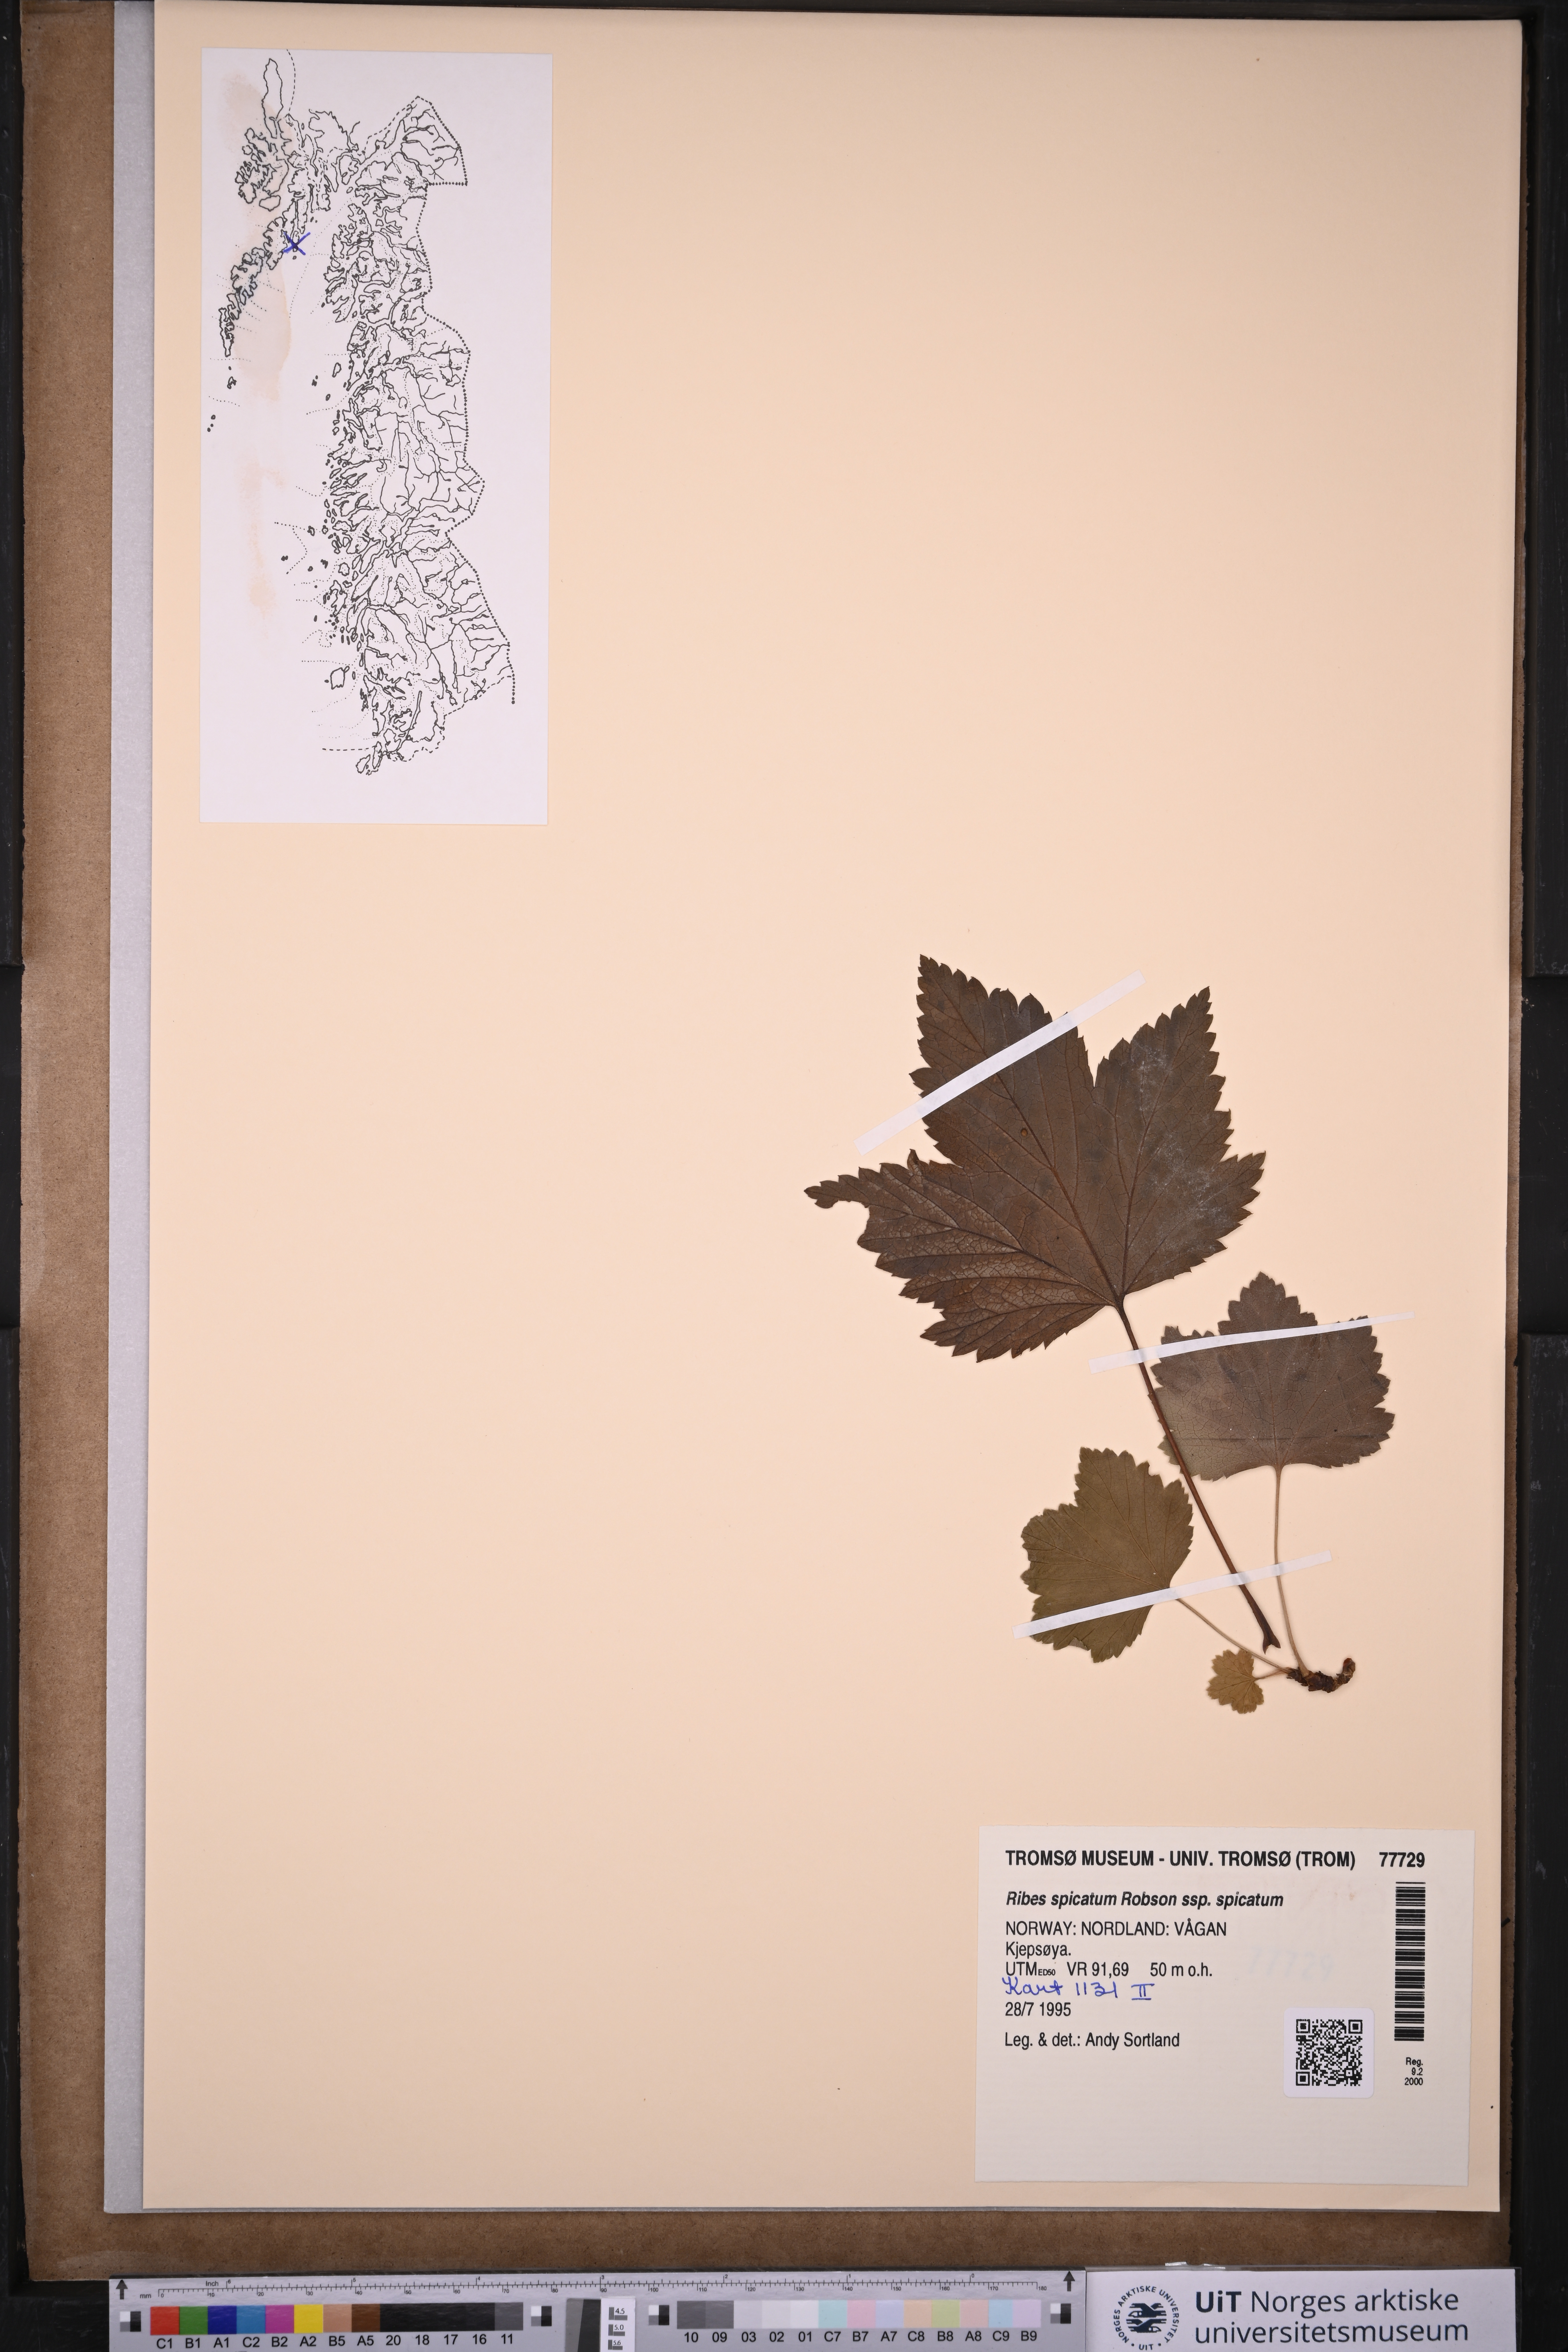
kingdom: Plantae
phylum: Tracheophyta
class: Magnoliopsida
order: Saxifragales
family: Grossulariaceae
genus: Ribes
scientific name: Ribes spicatum
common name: Downy currant
